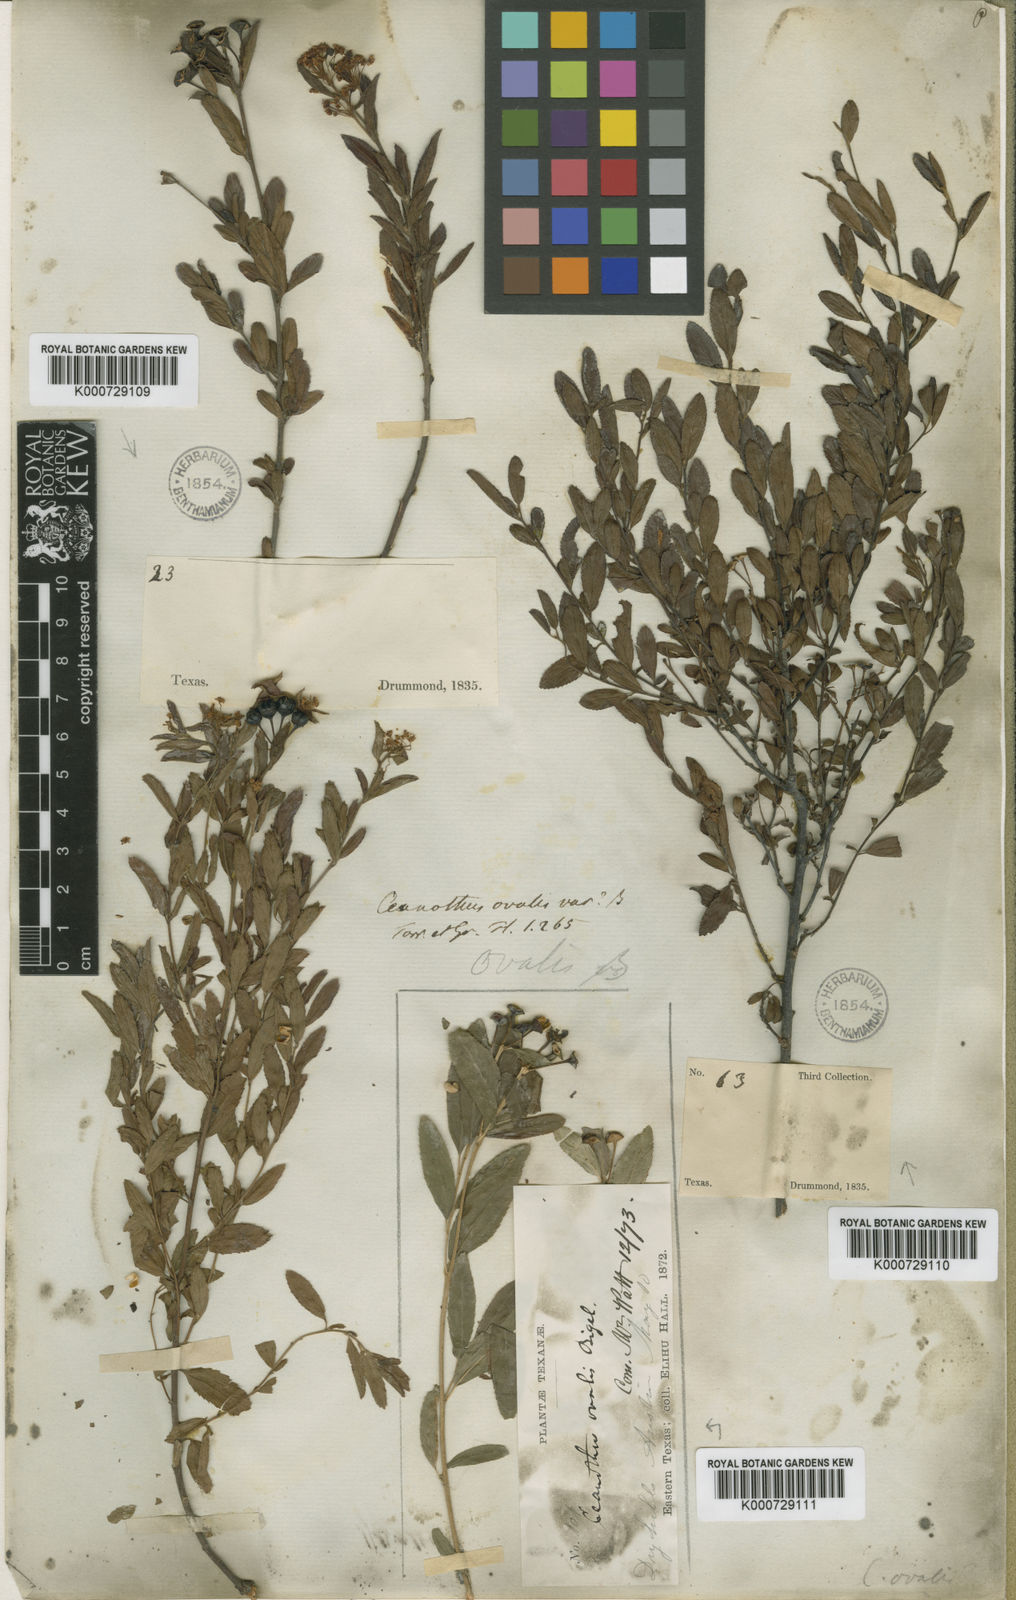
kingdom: Plantae
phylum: Tracheophyta
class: Magnoliopsida
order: Rosales
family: Rhamnaceae
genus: Ceanothus
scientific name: Ceanothus herbaceus
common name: Inland ceanothus
